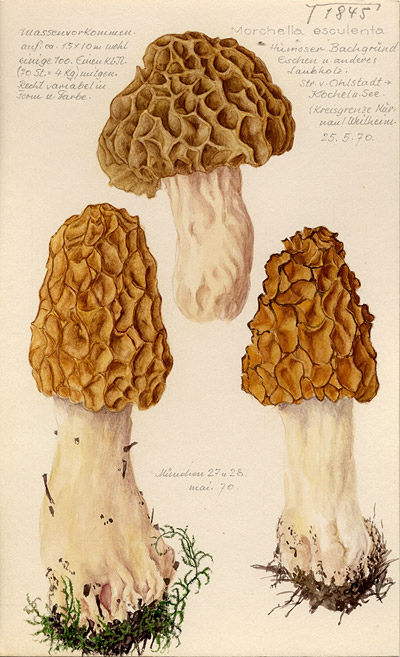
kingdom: Fungi
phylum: Ascomycota
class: Pezizomycetes
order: Pezizales
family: Morchellaceae
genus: Morchella
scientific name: Morchella esculenta
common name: Morel
